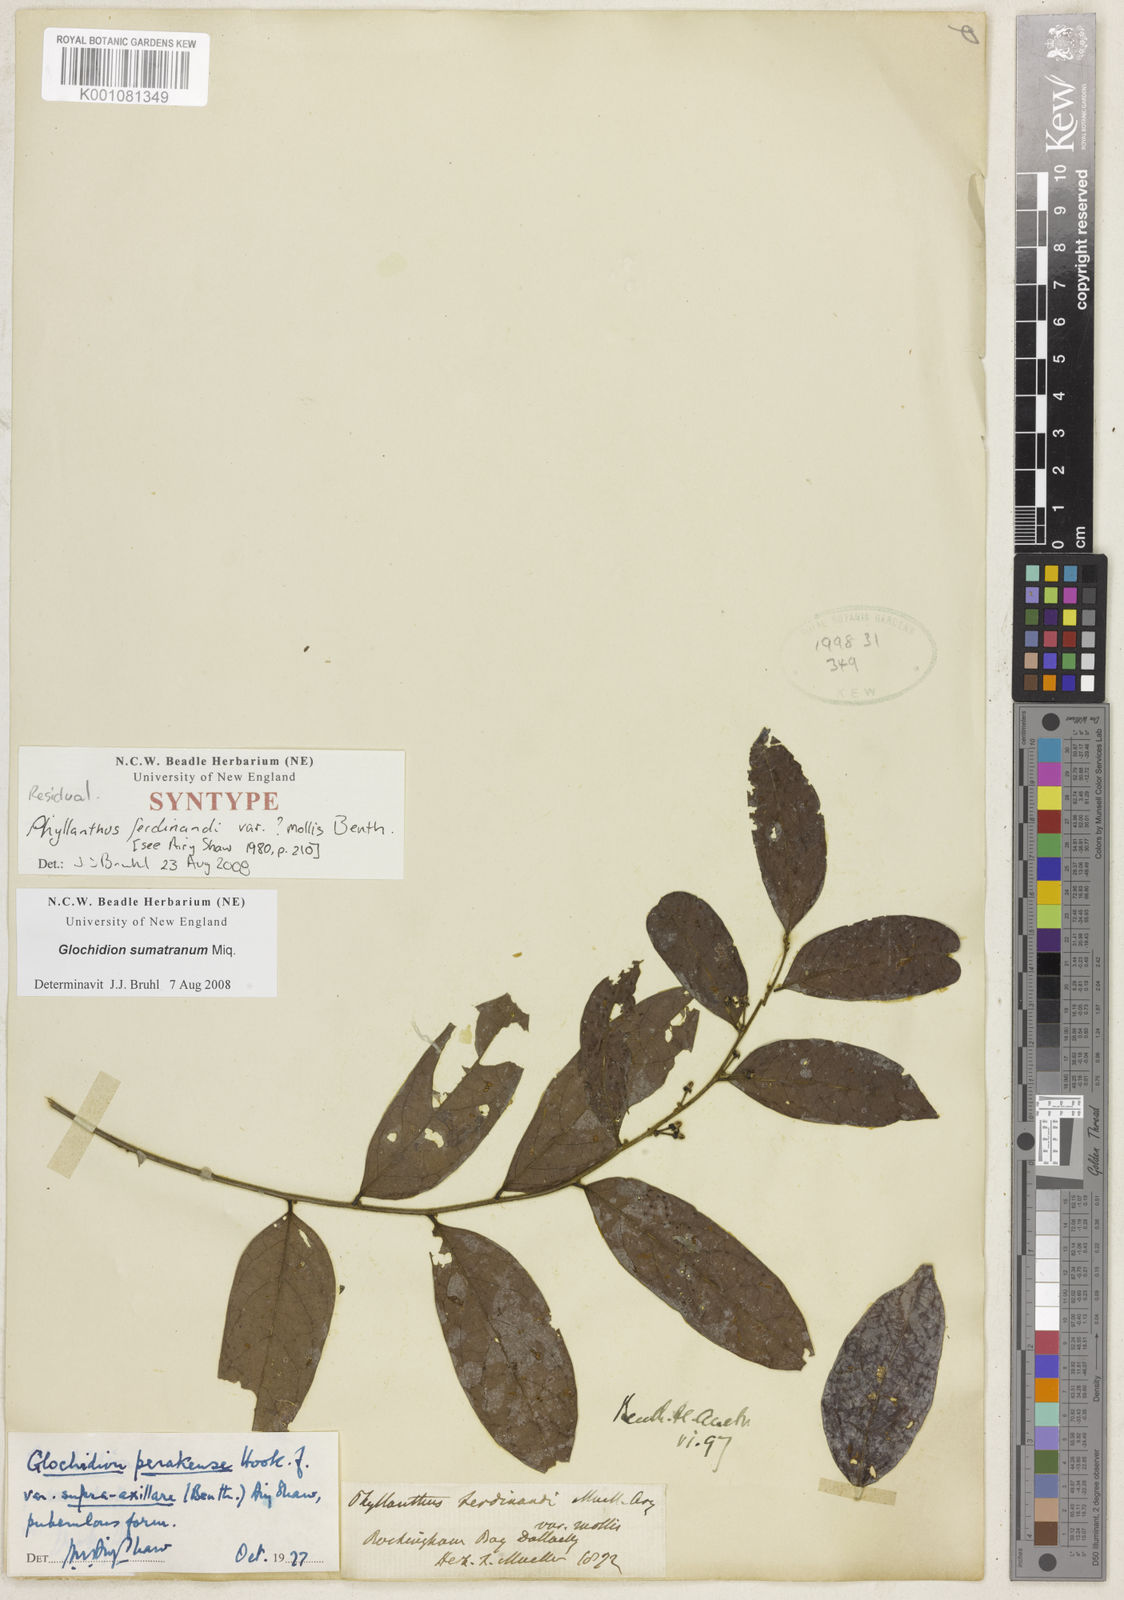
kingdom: Plantae
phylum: Tracheophyta
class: Magnoliopsida
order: Malpighiales
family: Phyllanthaceae
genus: Glochidion
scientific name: Glochidion zeylanicum
